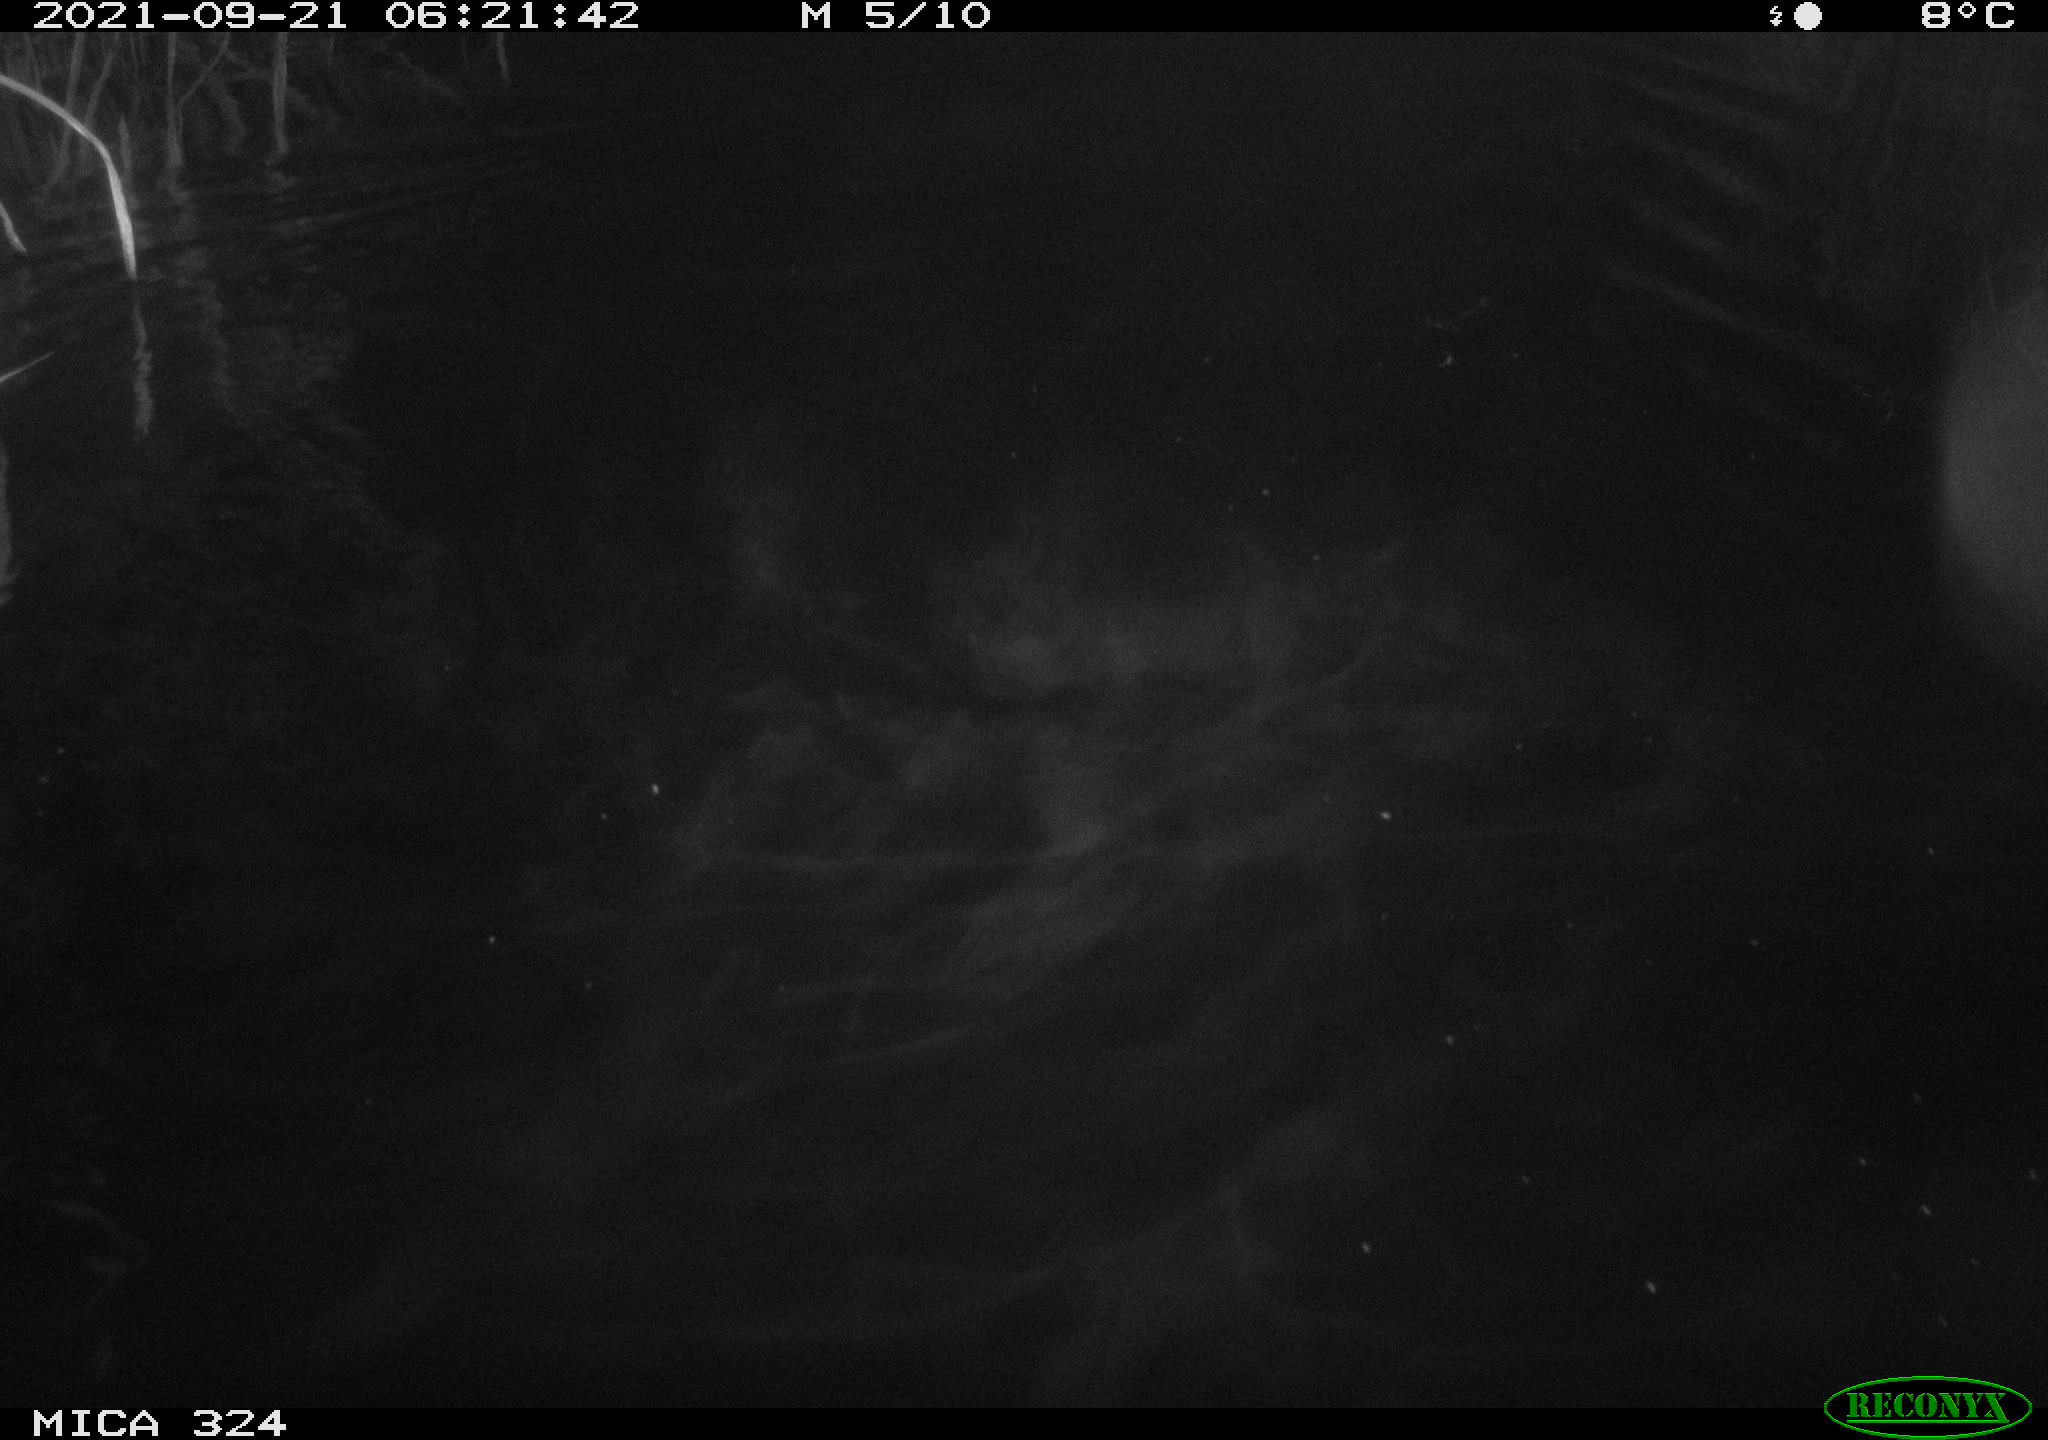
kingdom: Animalia
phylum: Chordata
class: Mammalia
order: Rodentia
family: Cricetidae
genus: Ondatra
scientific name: Ondatra zibethicus
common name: Muskrat
